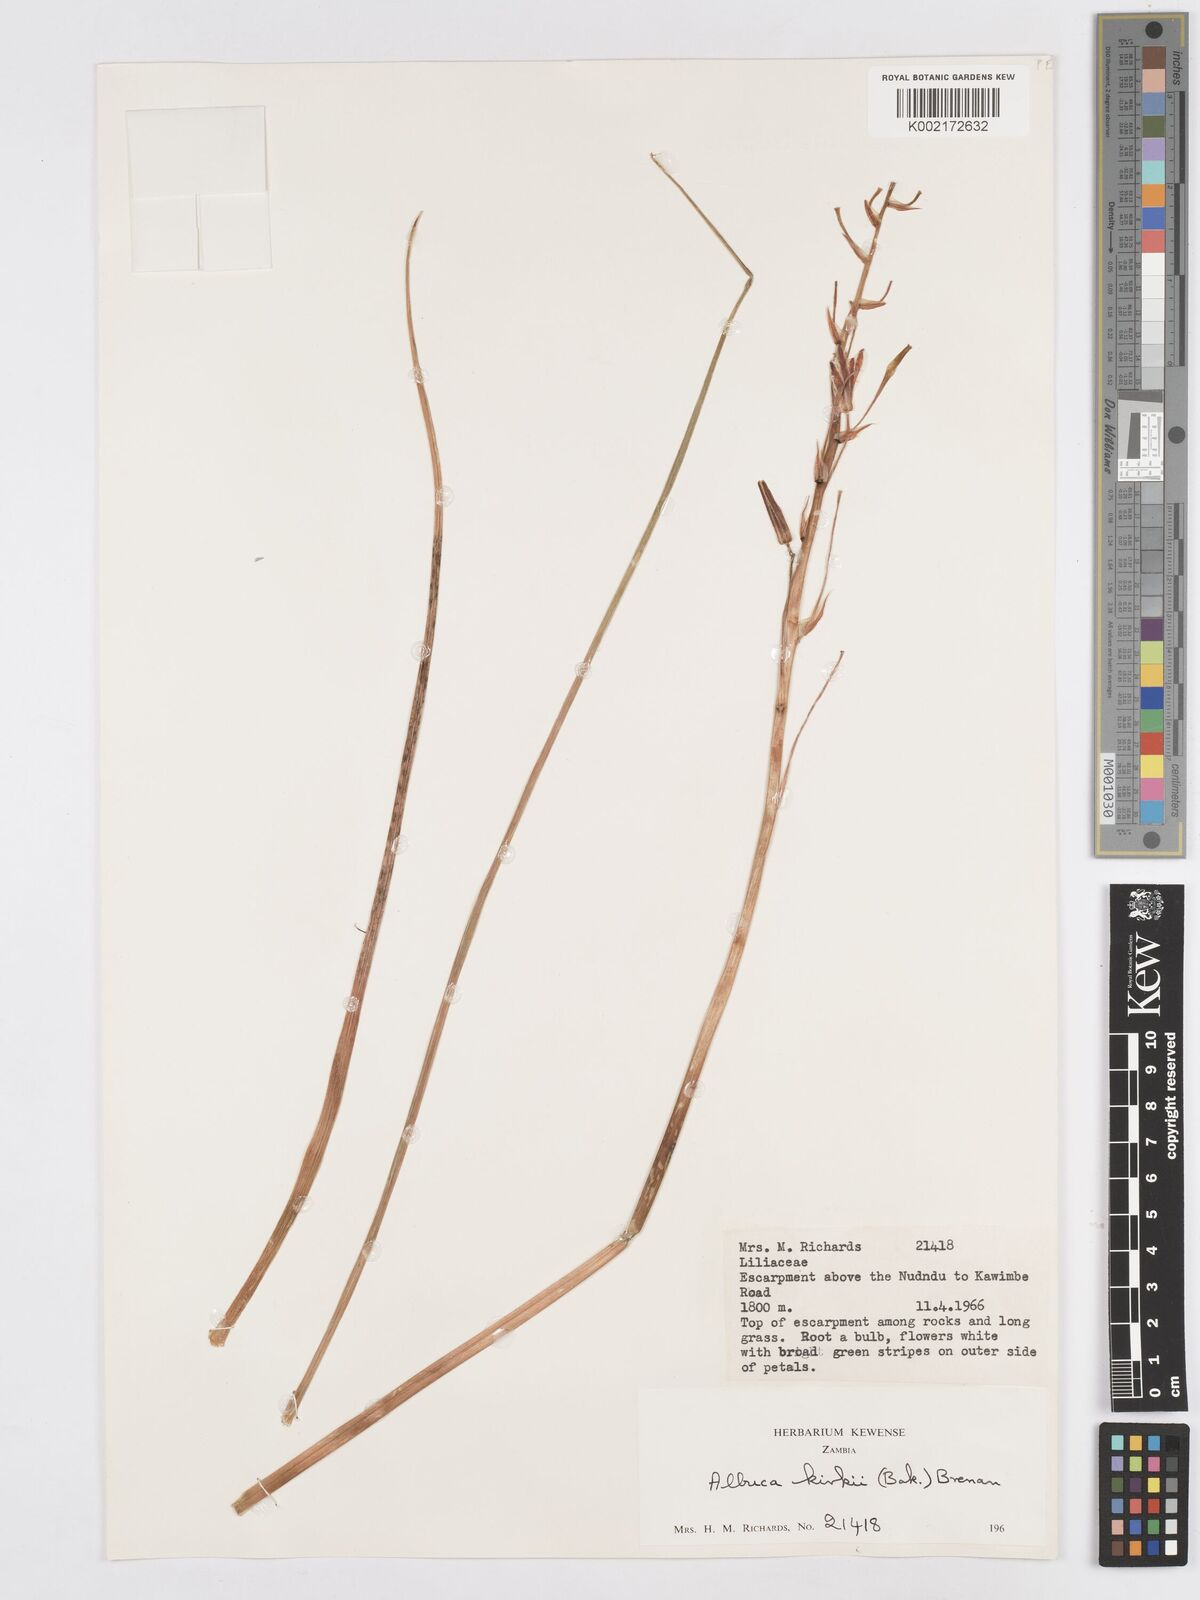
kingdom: Plantae
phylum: Tracheophyta
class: Liliopsida
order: Asparagales
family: Asparagaceae
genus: Albuca
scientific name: Albuca kirkii
